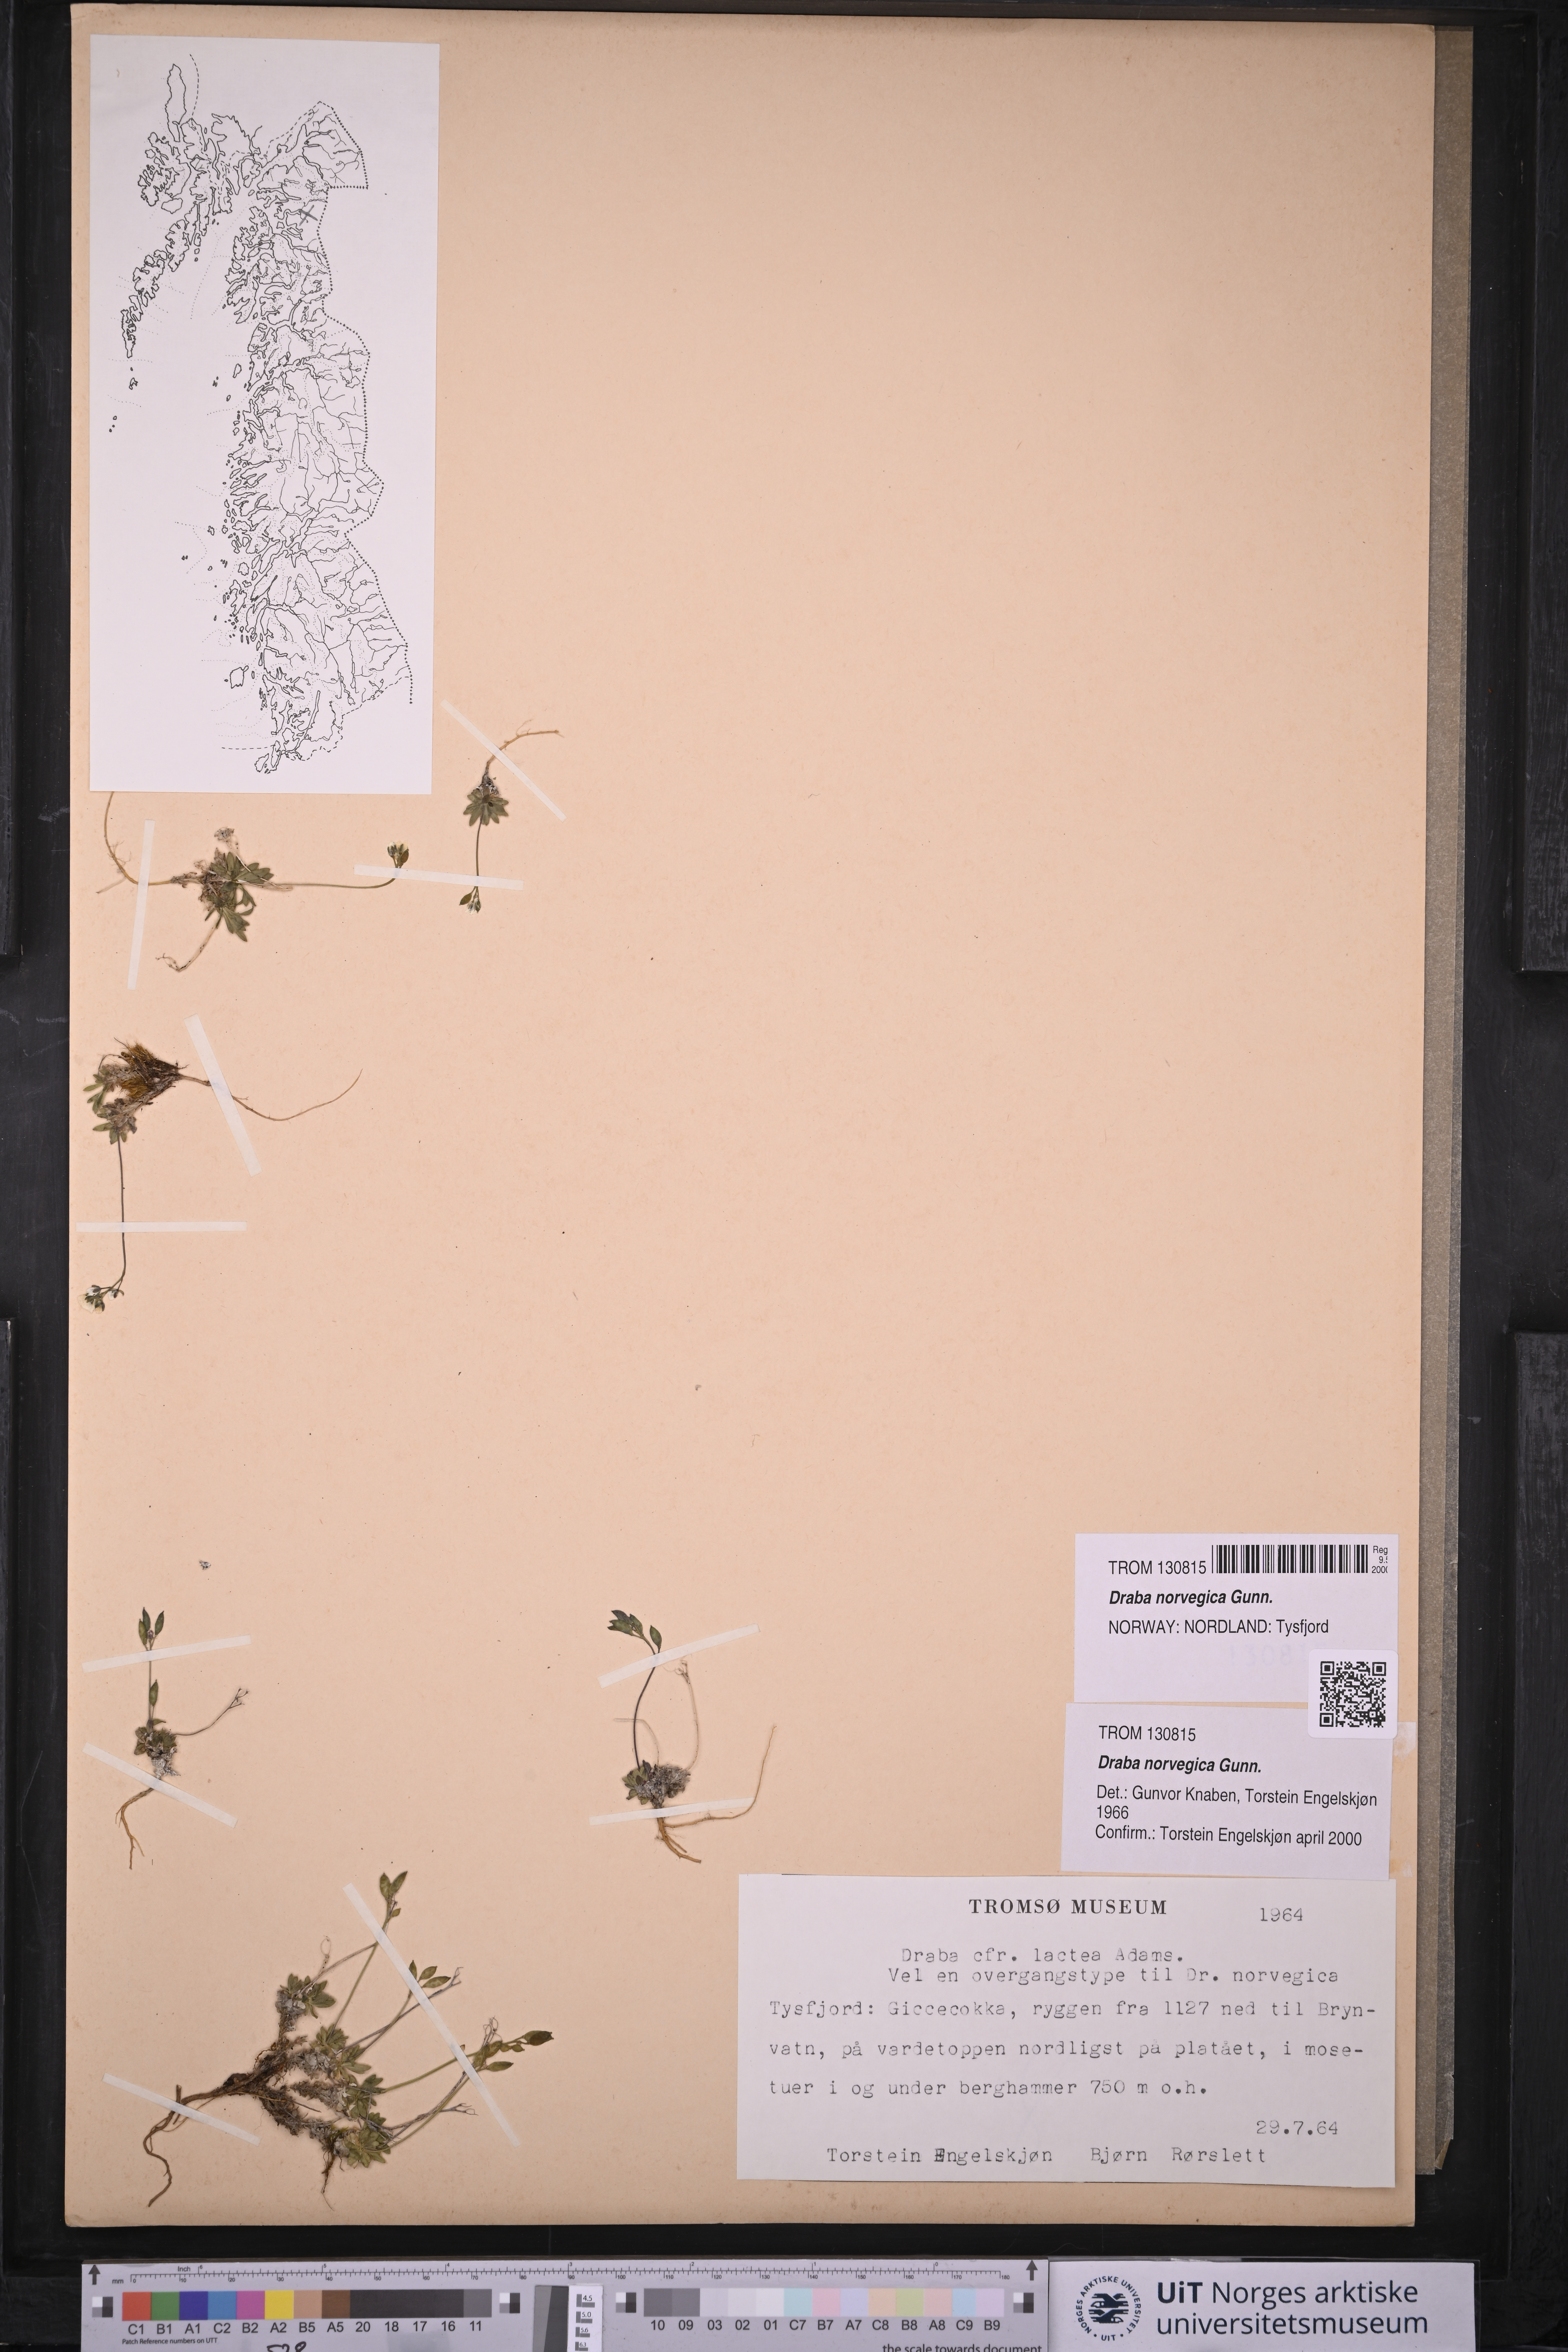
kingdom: Plantae
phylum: Tracheophyta
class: Magnoliopsida
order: Brassicales
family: Brassicaceae
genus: Draba
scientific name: Draba norvegica
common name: Rock whitlowgrass
